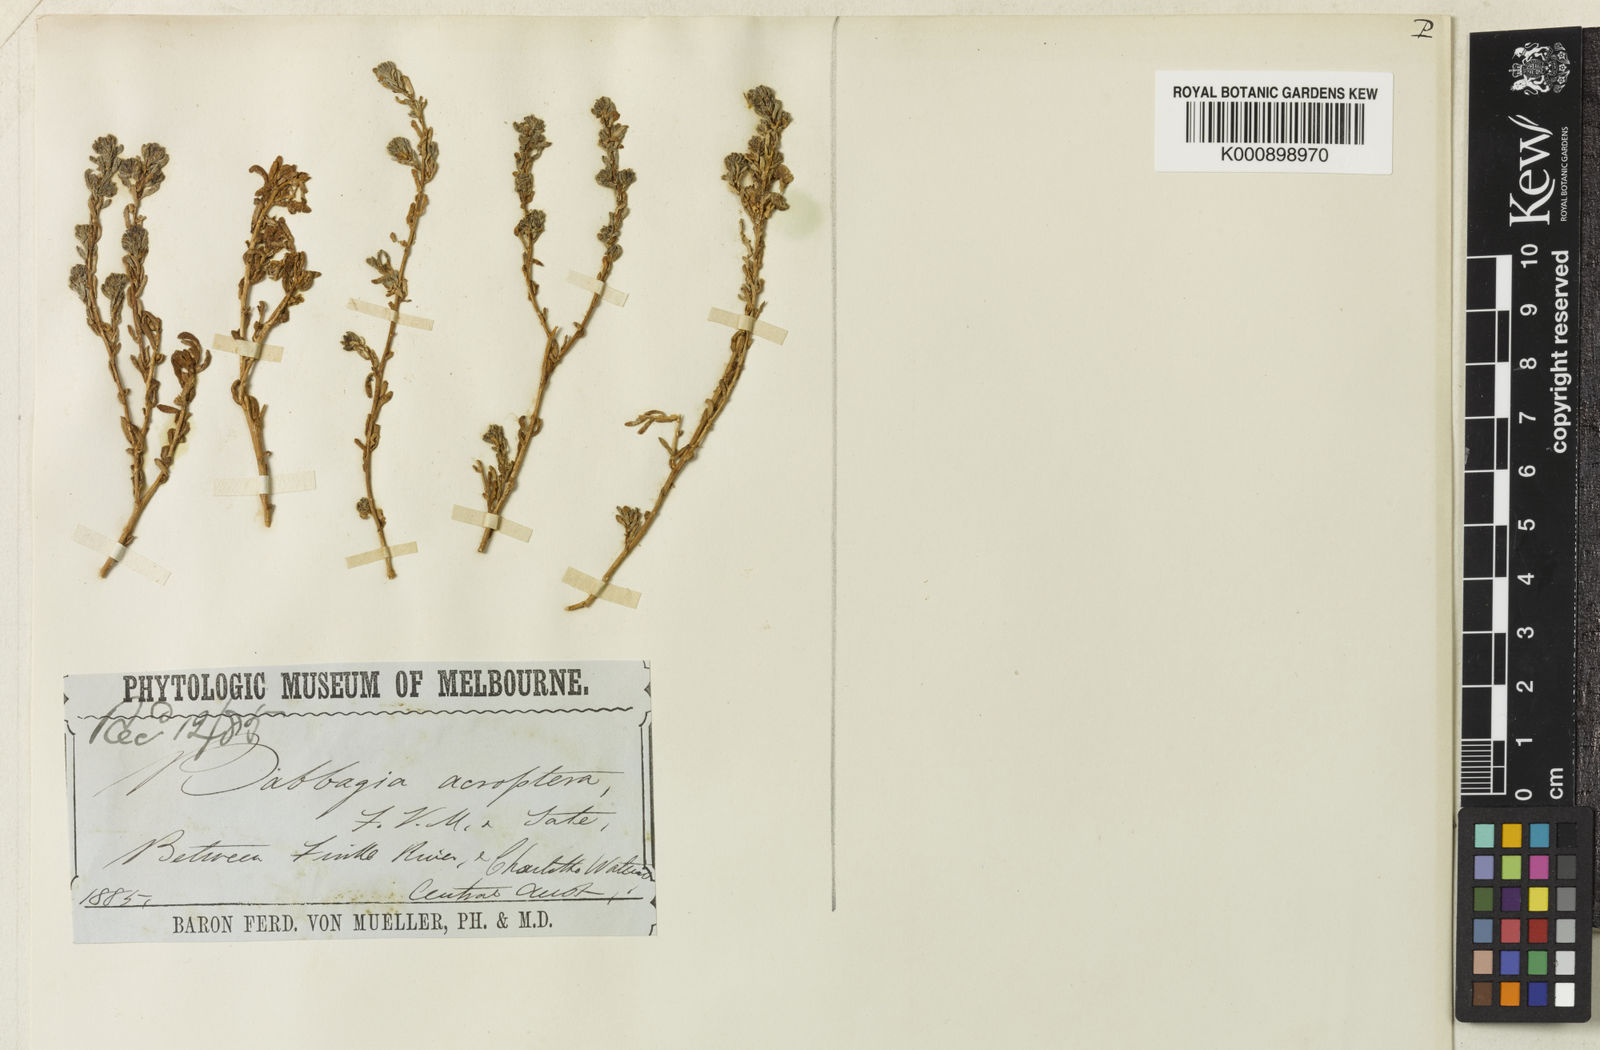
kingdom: Plantae
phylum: Tracheophyta
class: Magnoliopsida
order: Caryophyllales
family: Amaranthaceae
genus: Osteocarpum
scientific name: Osteocarpum acropterum
